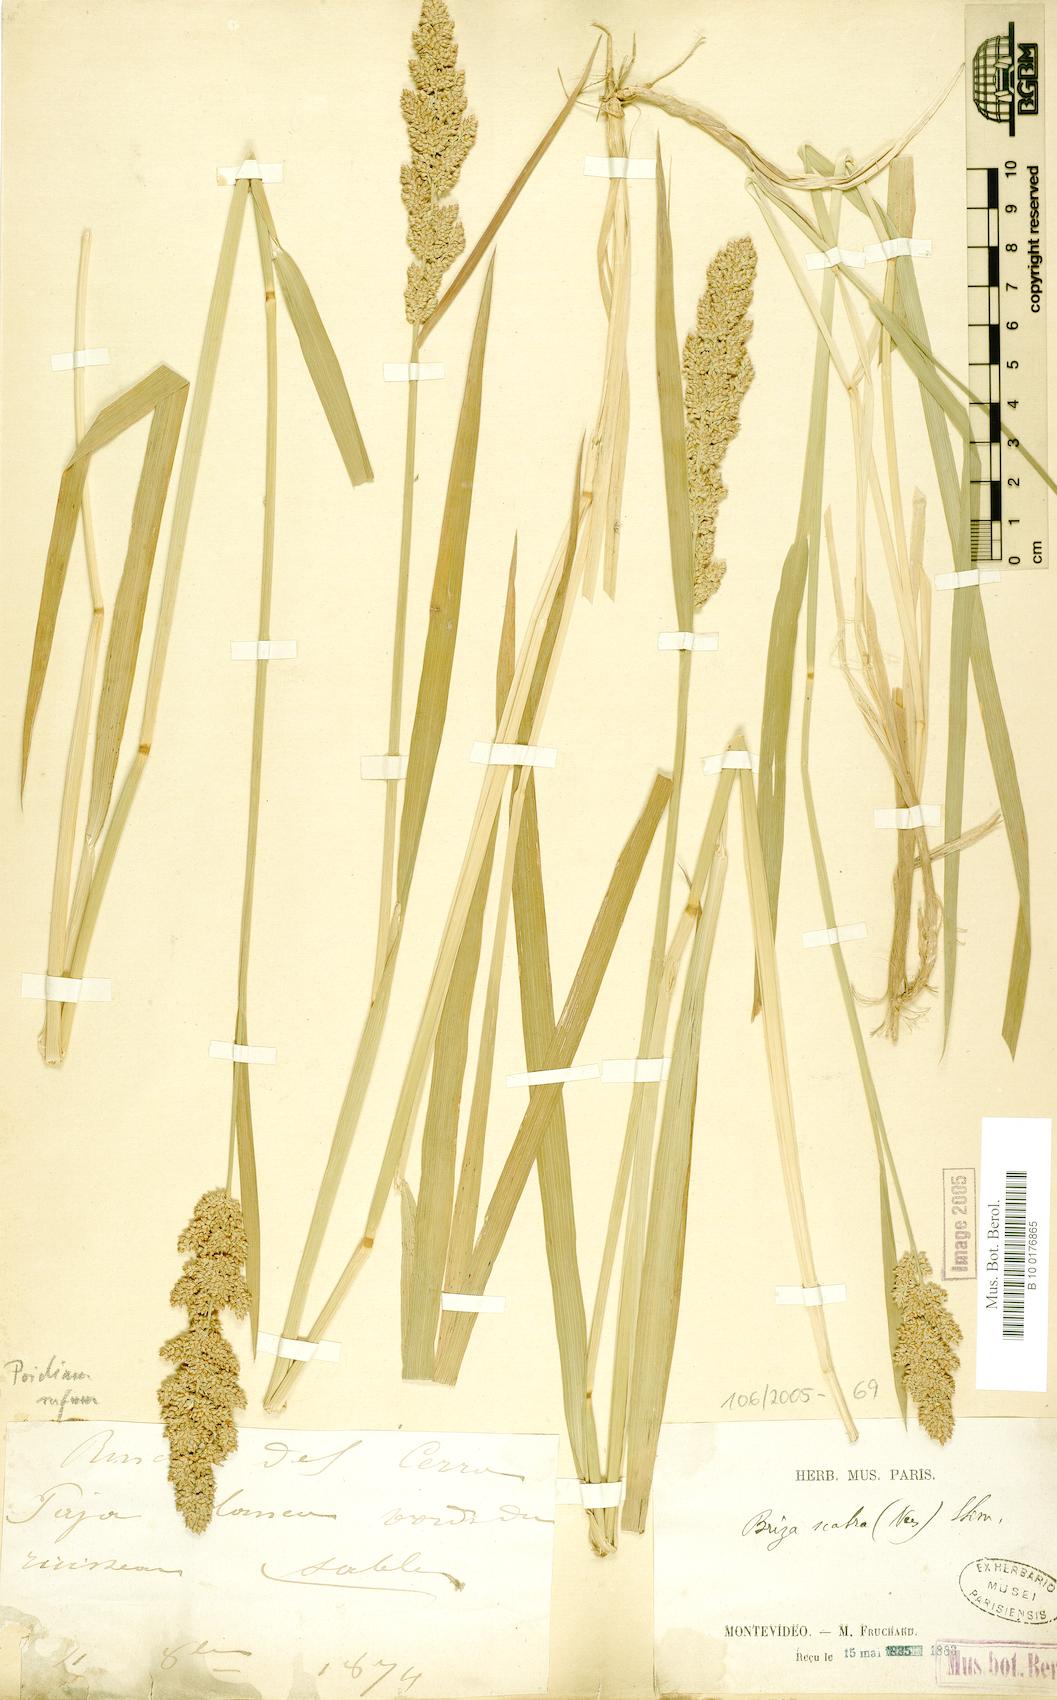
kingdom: Plantae
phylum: Tracheophyta
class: Liliopsida
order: Poales
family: Poaceae
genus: Lombardochloa
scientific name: Lombardochloa rufa
